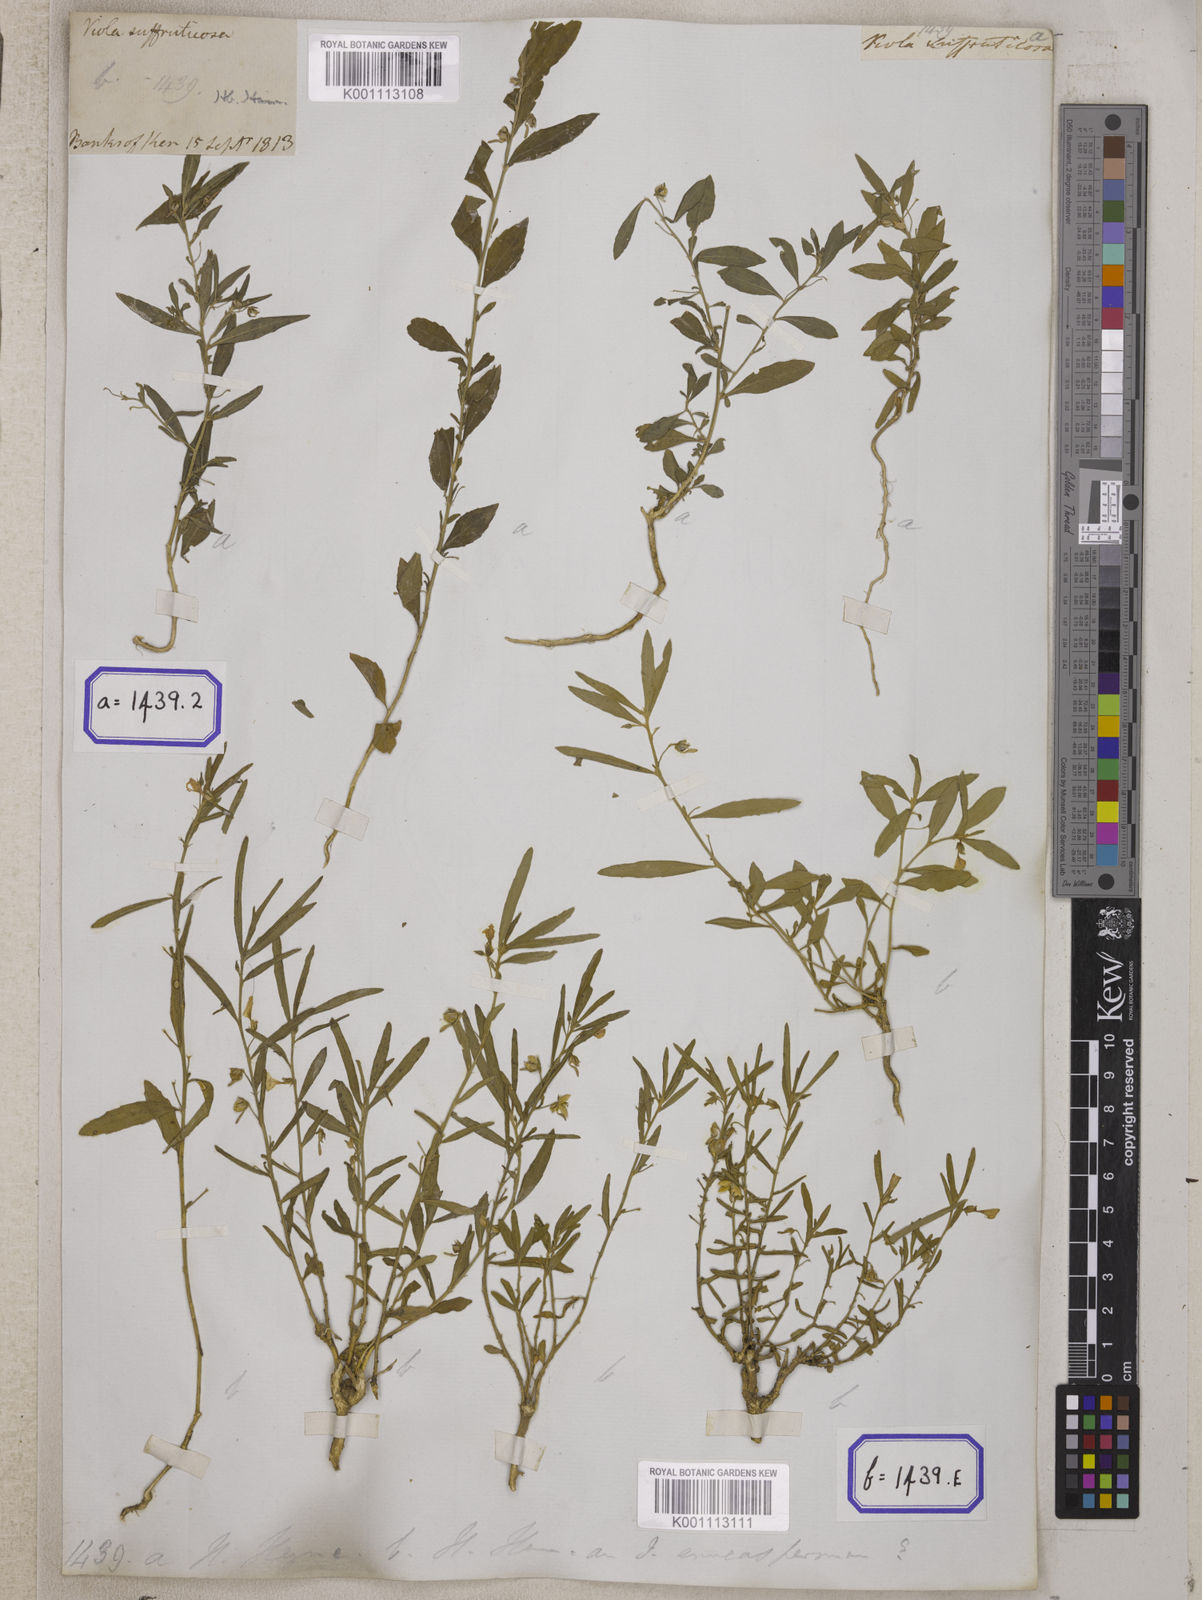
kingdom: Plantae
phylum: Tracheophyta
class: Magnoliopsida
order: Malpighiales
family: Violaceae
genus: Pigea
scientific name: Pigea enneasperma
